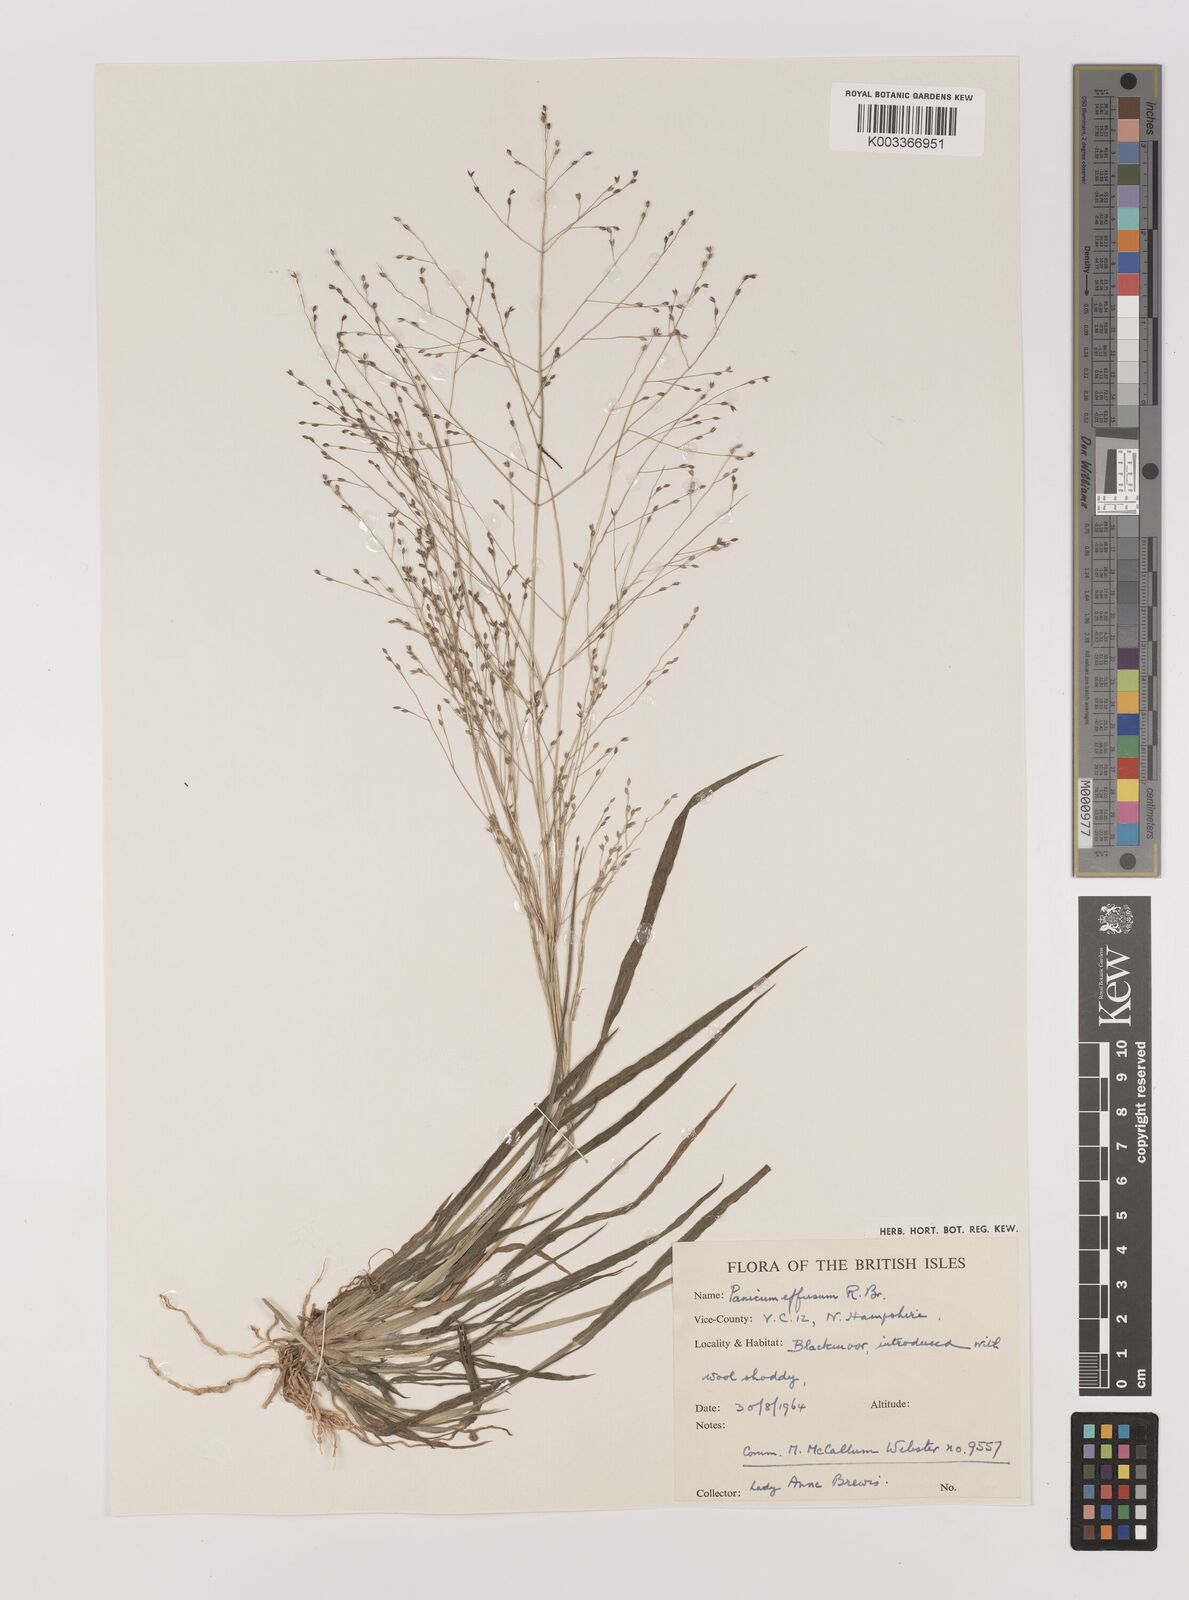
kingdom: Plantae
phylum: Tracheophyta
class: Liliopsida
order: Poales
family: Poaceae
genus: Panicum
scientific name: Panicum effusum
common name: Hairy panic grass
